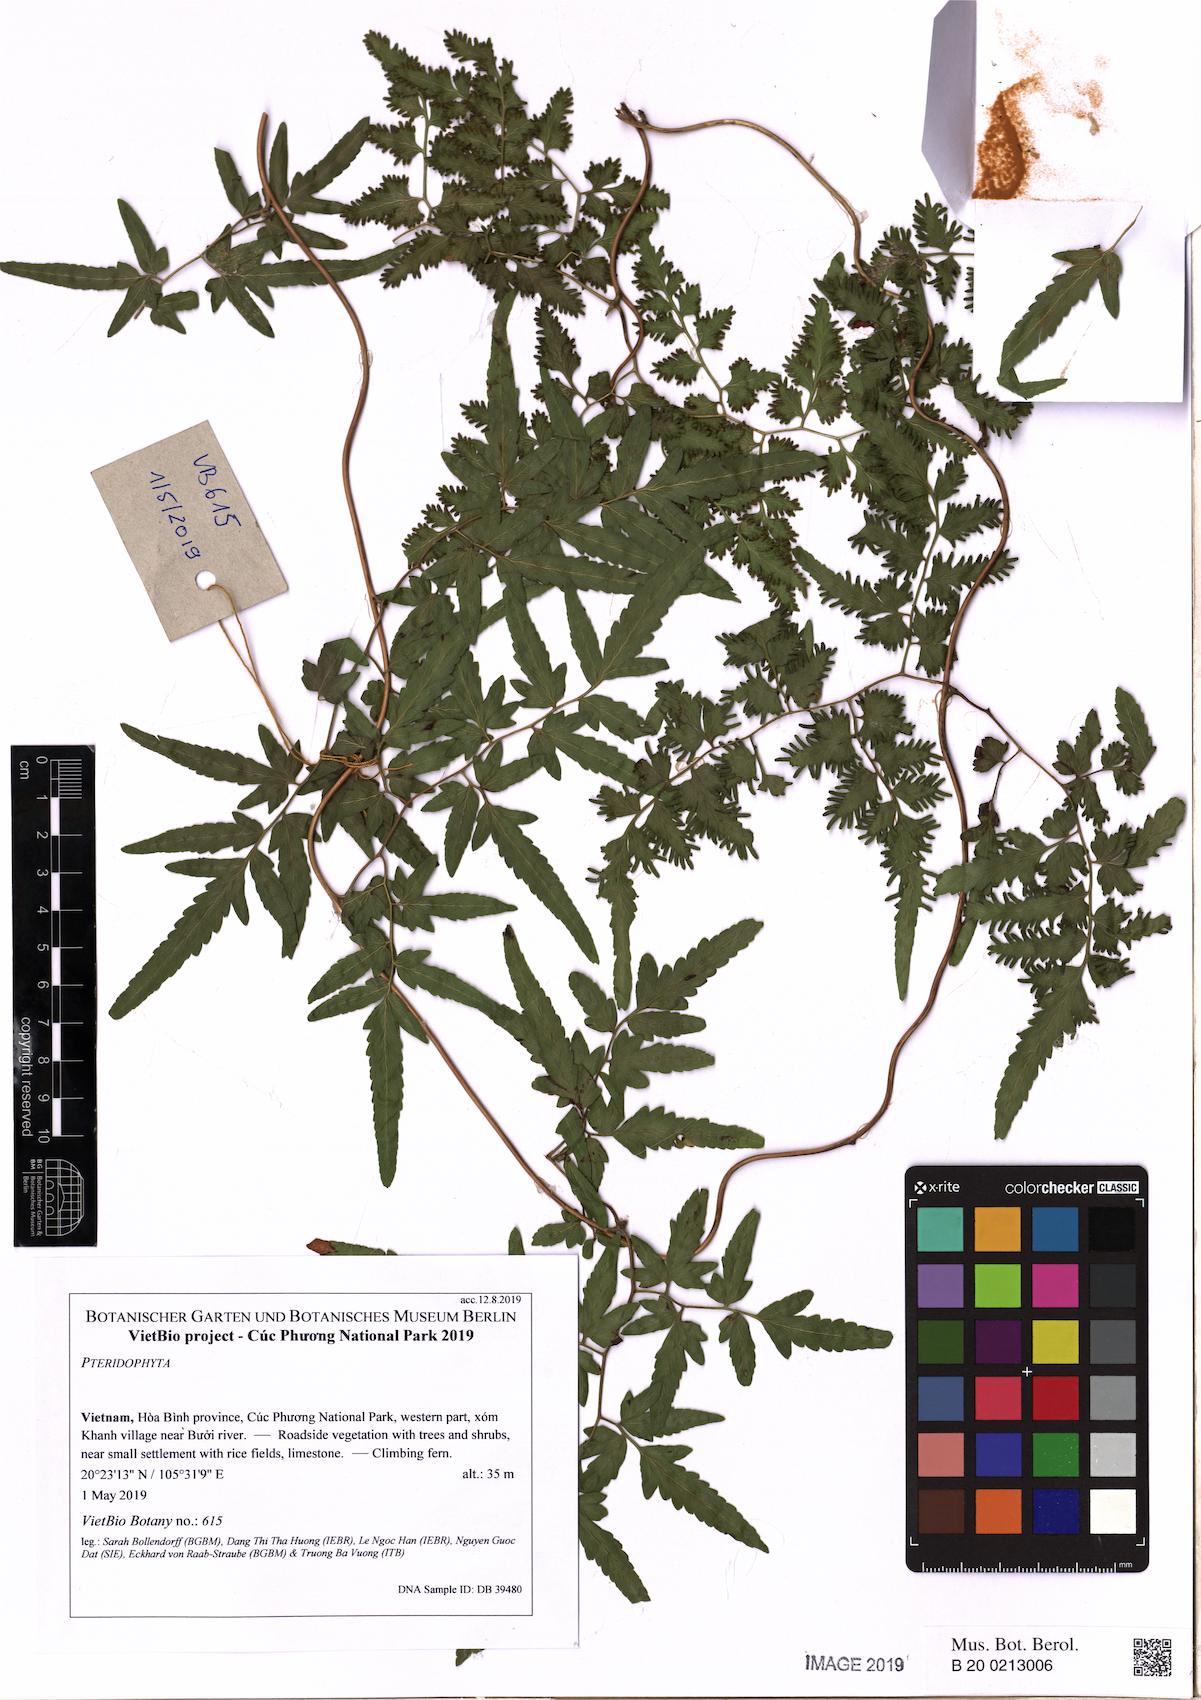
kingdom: Plantae
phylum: Tracheophyta
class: Polypodiopsida
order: Schizaeales
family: Lygodiaceae
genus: Lygodium
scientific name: Lygodium japonicum
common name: Japanese climbing fern
